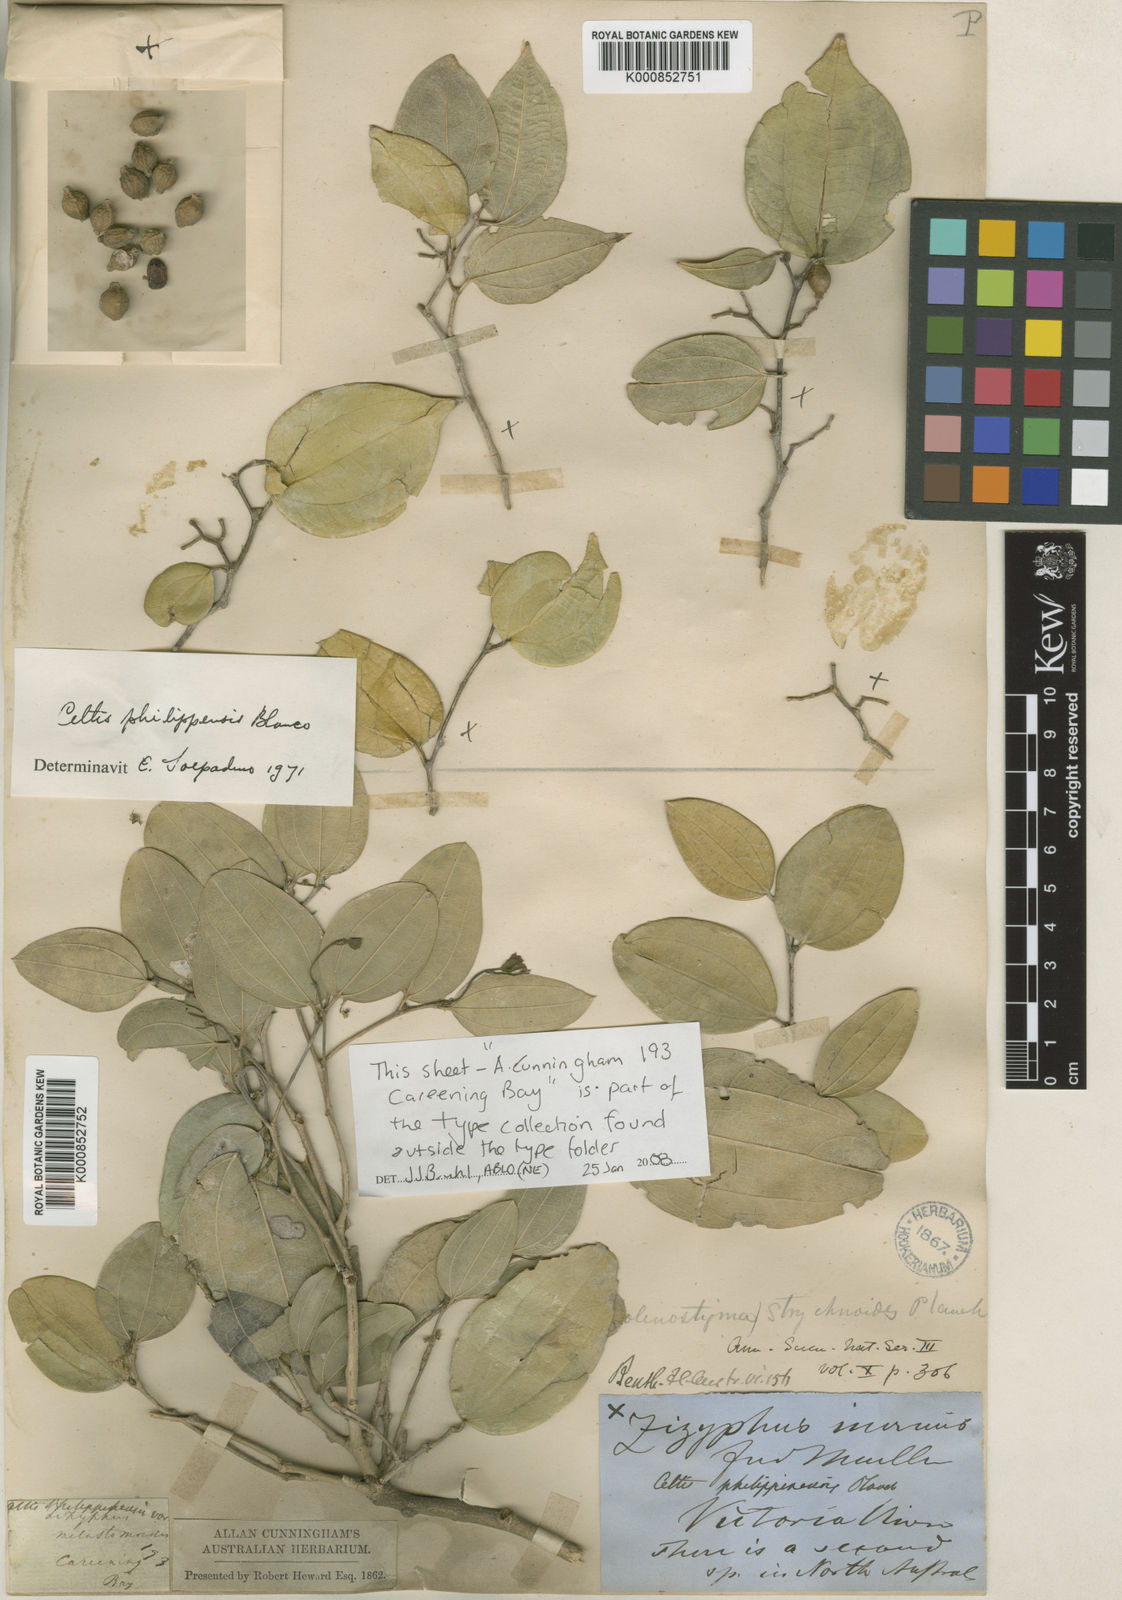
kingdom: Plantae
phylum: Tracheophyta
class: Magnoliopsida
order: Rosales
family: Cannabaceae
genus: Celtis
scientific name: Celtis philippensis
